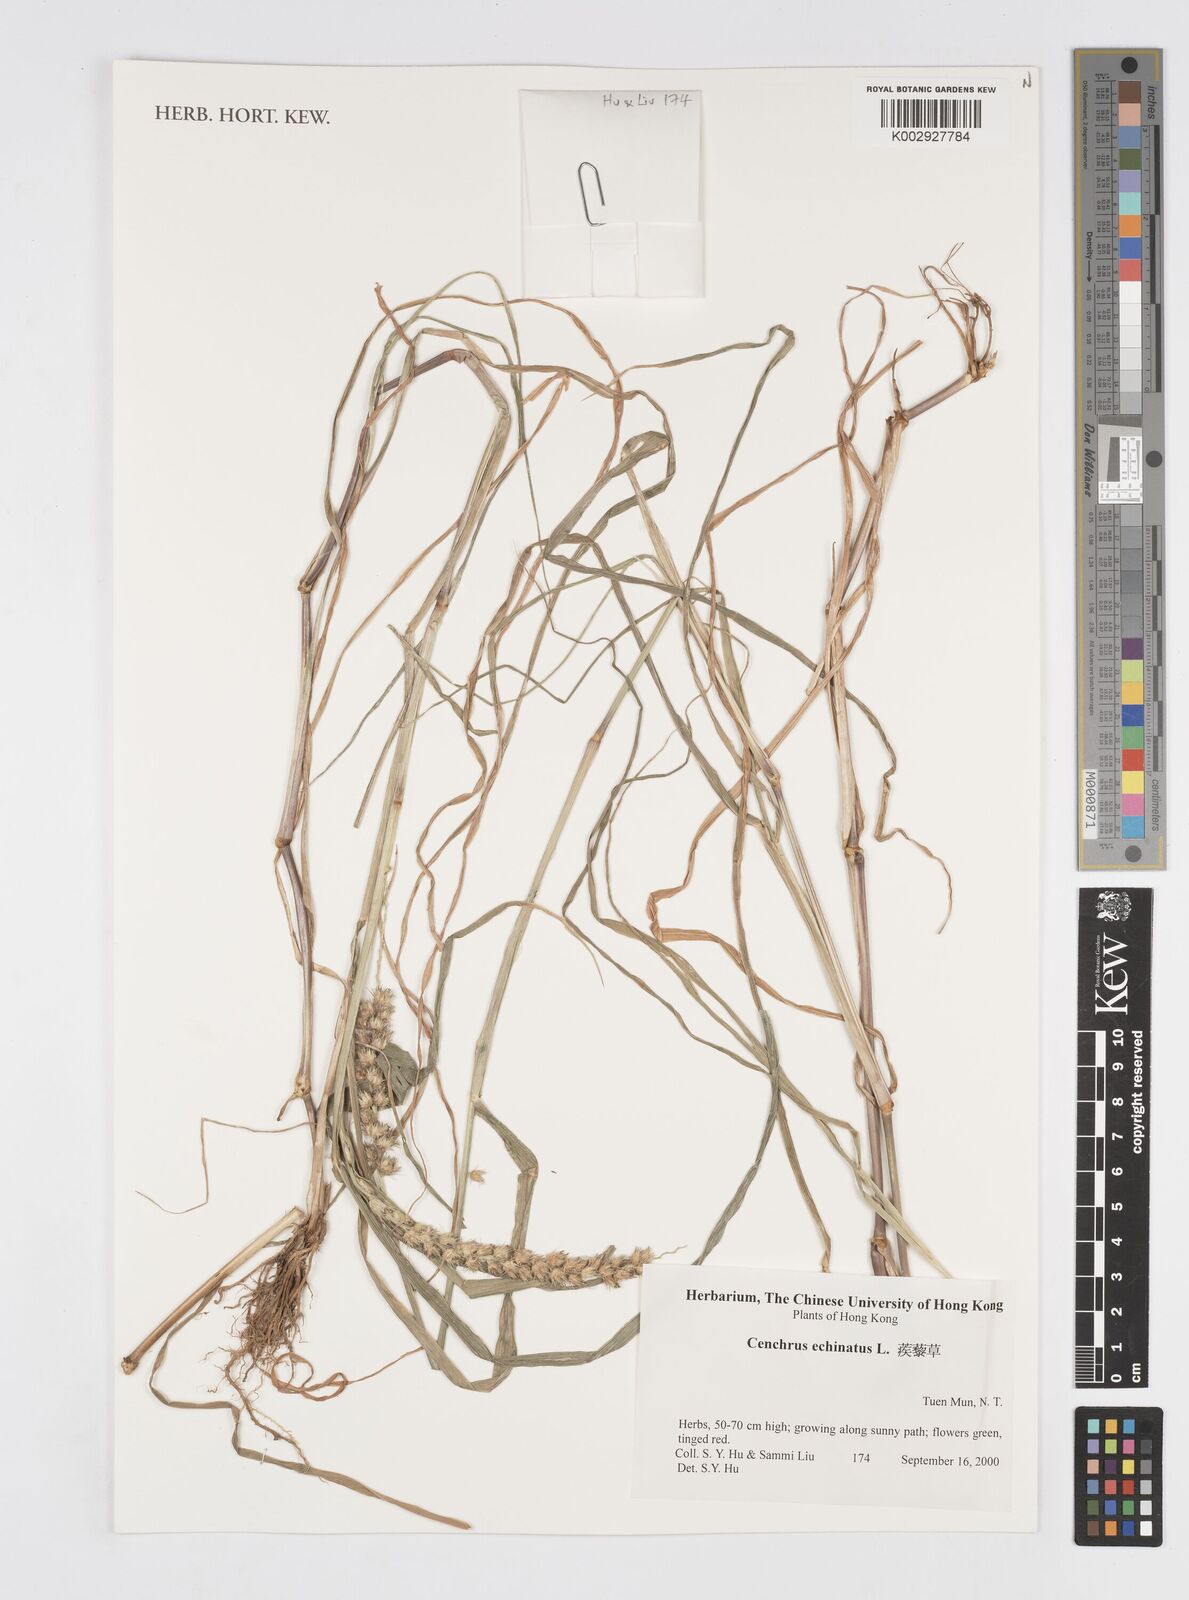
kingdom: Plantae
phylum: Tracheophyta
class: Liliopsida
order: Poales
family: Poaceae
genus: Cenchrus
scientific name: Cenchrus echinatus
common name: Southern sandbur
